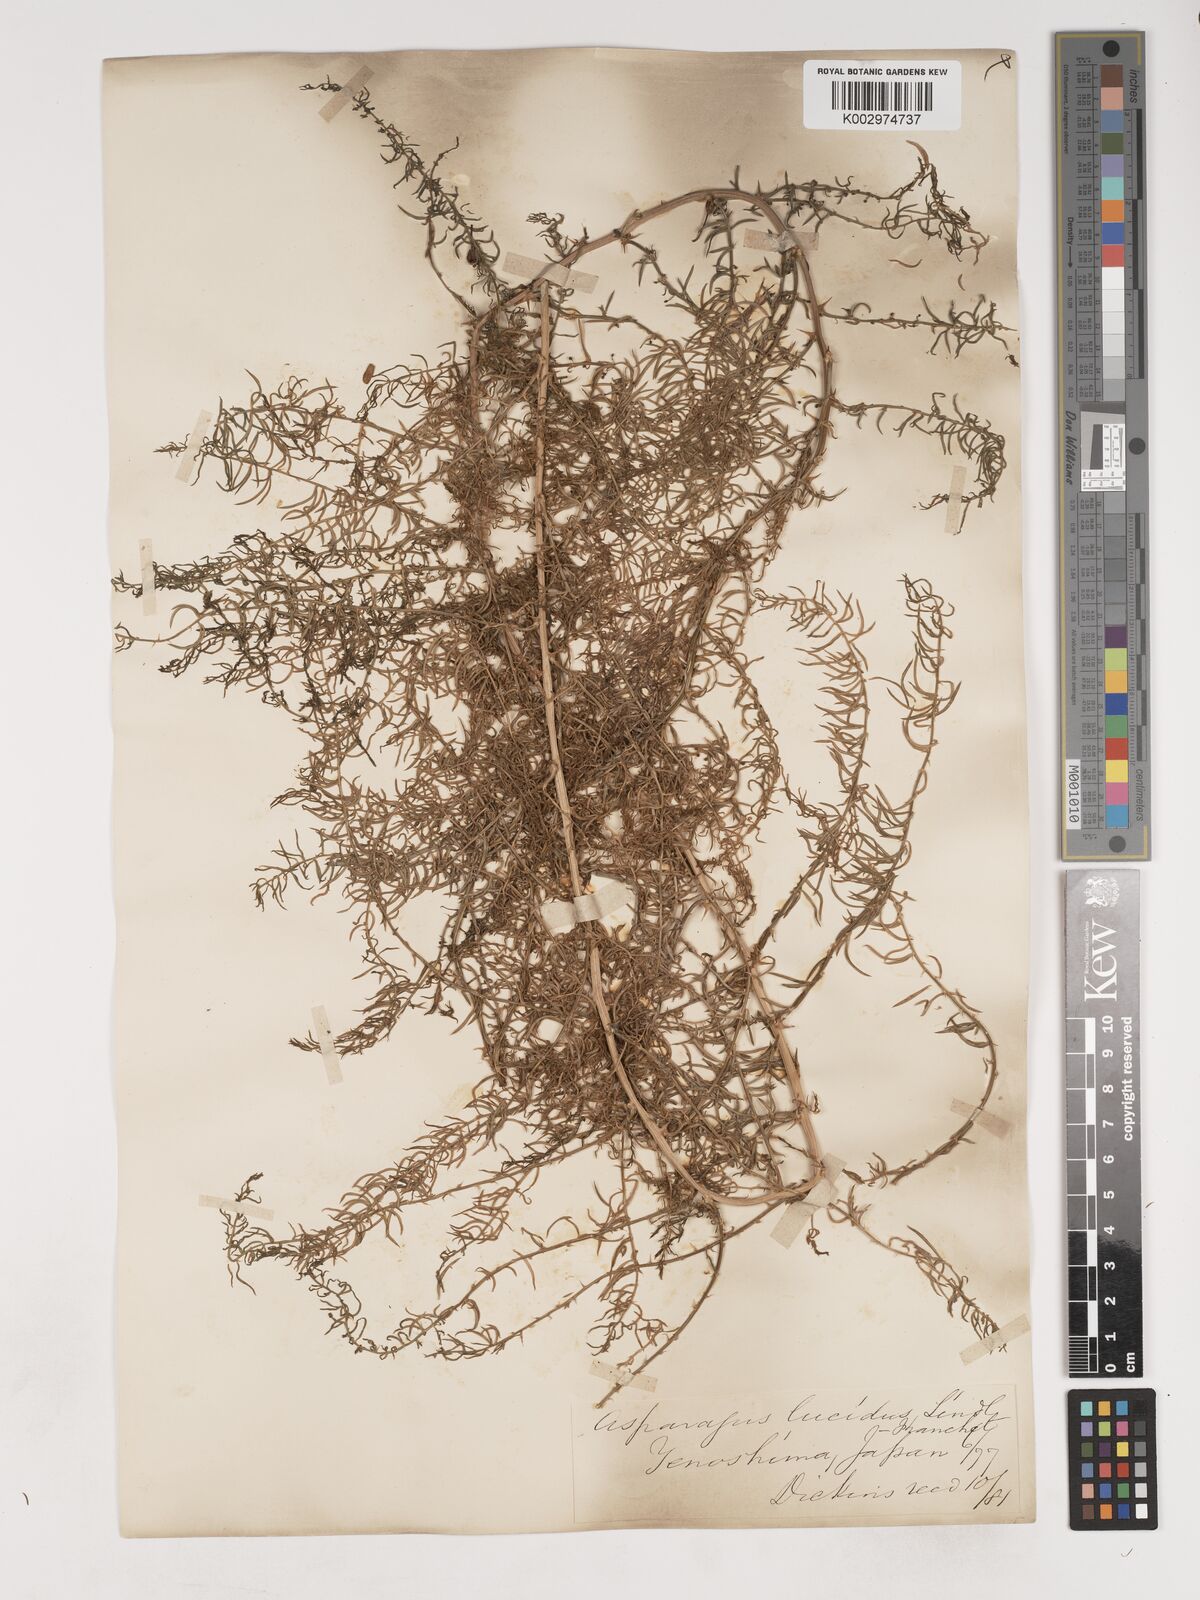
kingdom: Plantae
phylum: Tracheophyta
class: Liliopsida
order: Asparagales
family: Asparagaceae
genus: Asparagus
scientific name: Asparagus cochinchinensis
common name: Chinese asparagus
